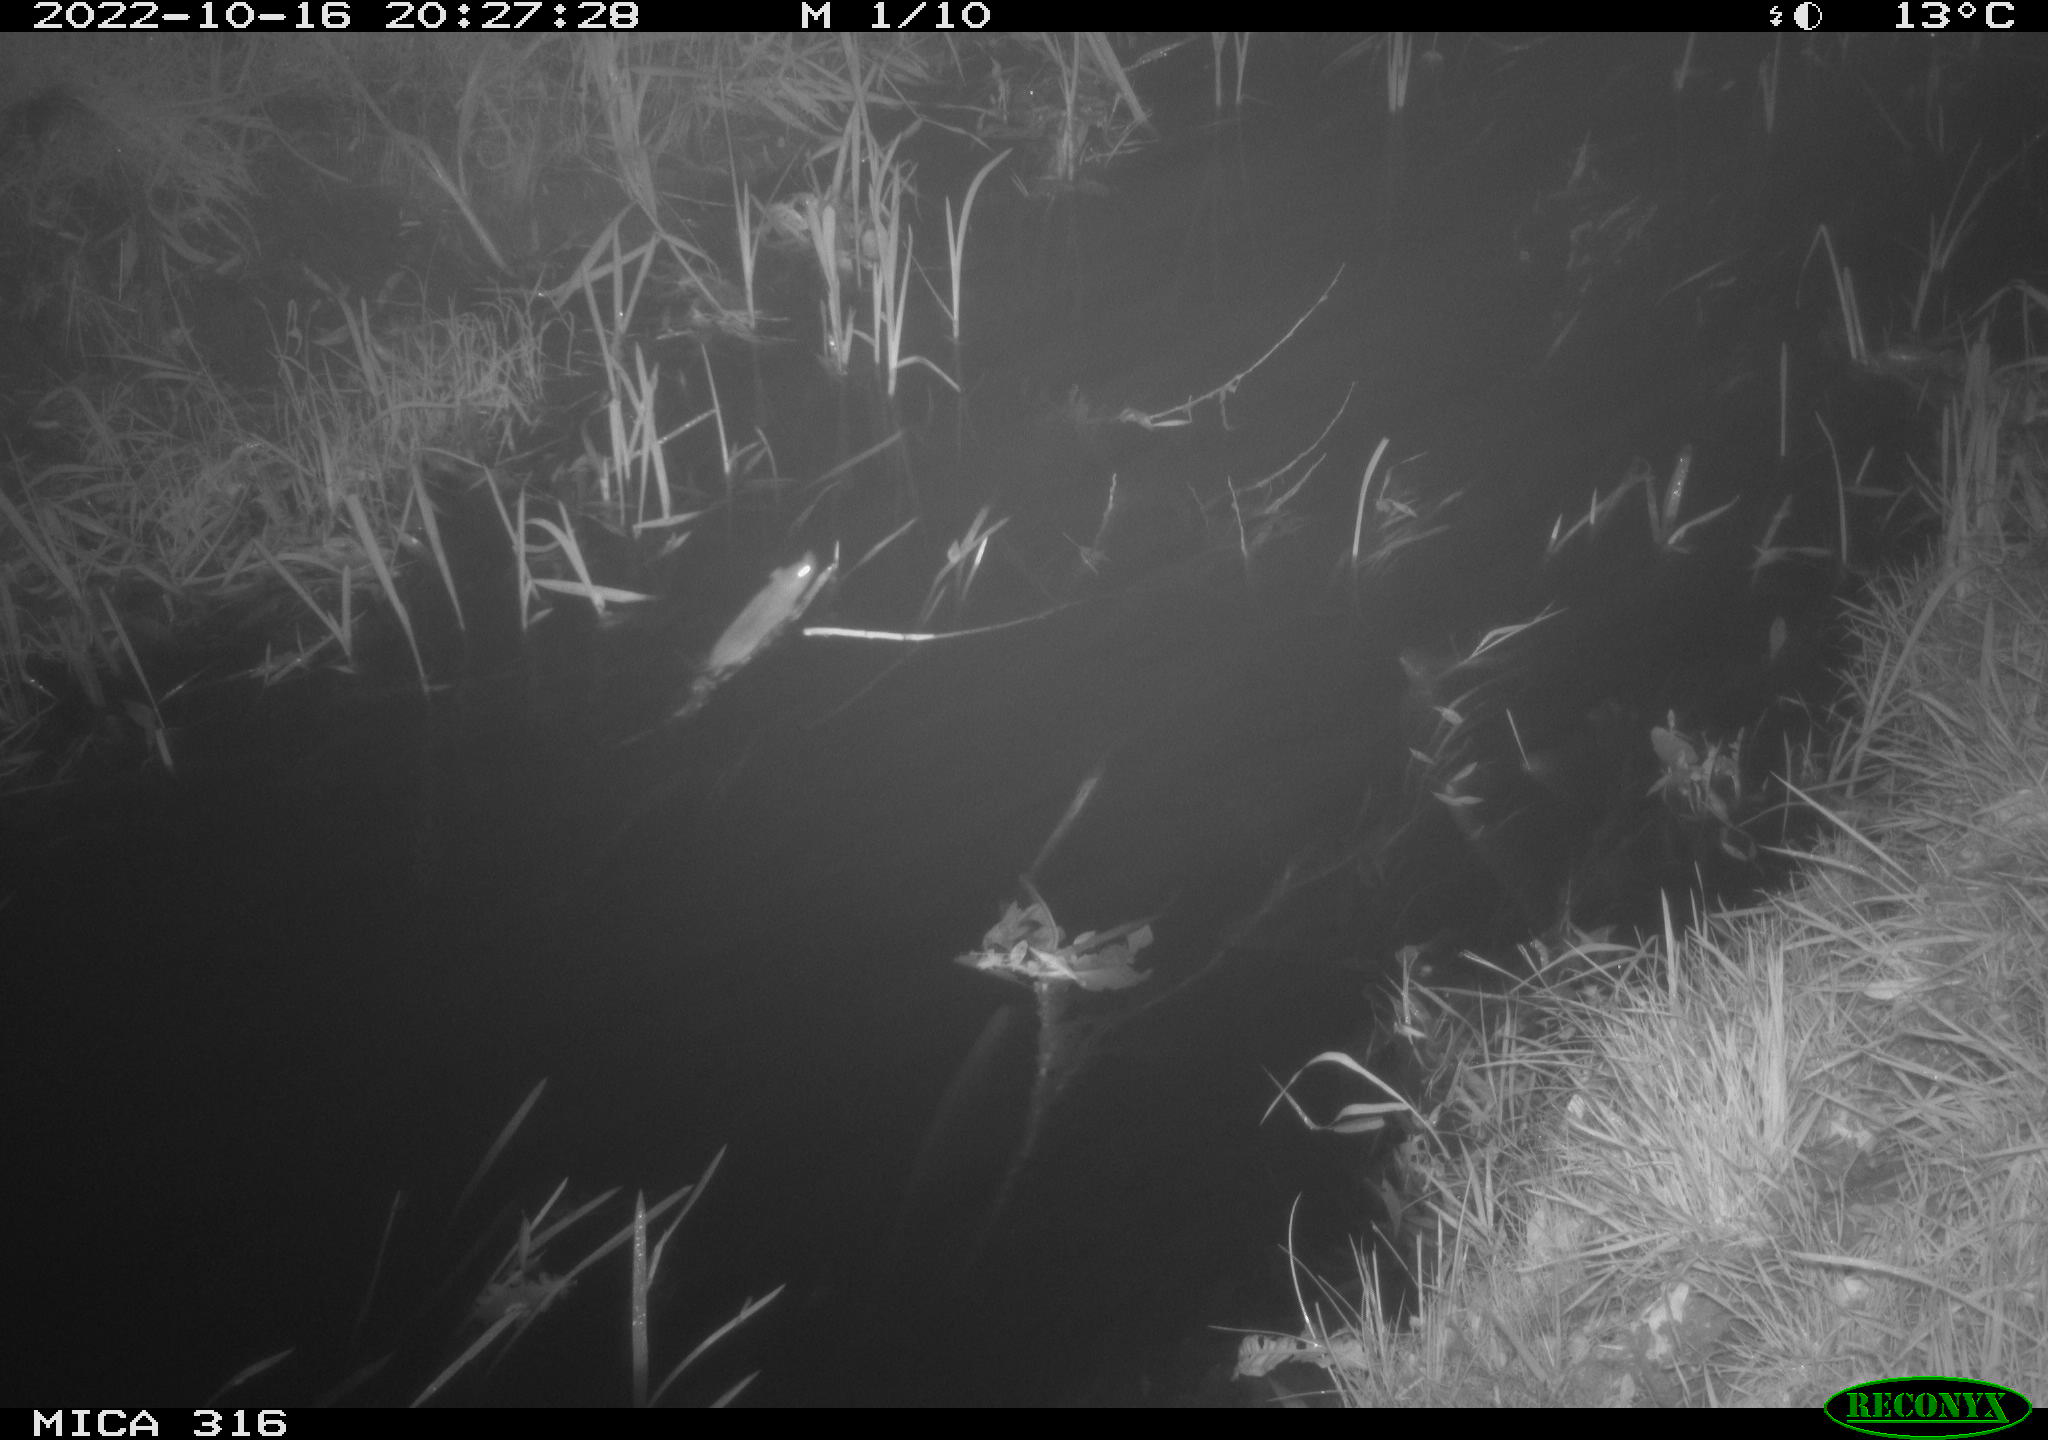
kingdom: Animalia
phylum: Chordata
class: Mammalia
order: Rodentia
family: Muridae
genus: Rattus
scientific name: Rattus norvegicus
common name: Brown rat
